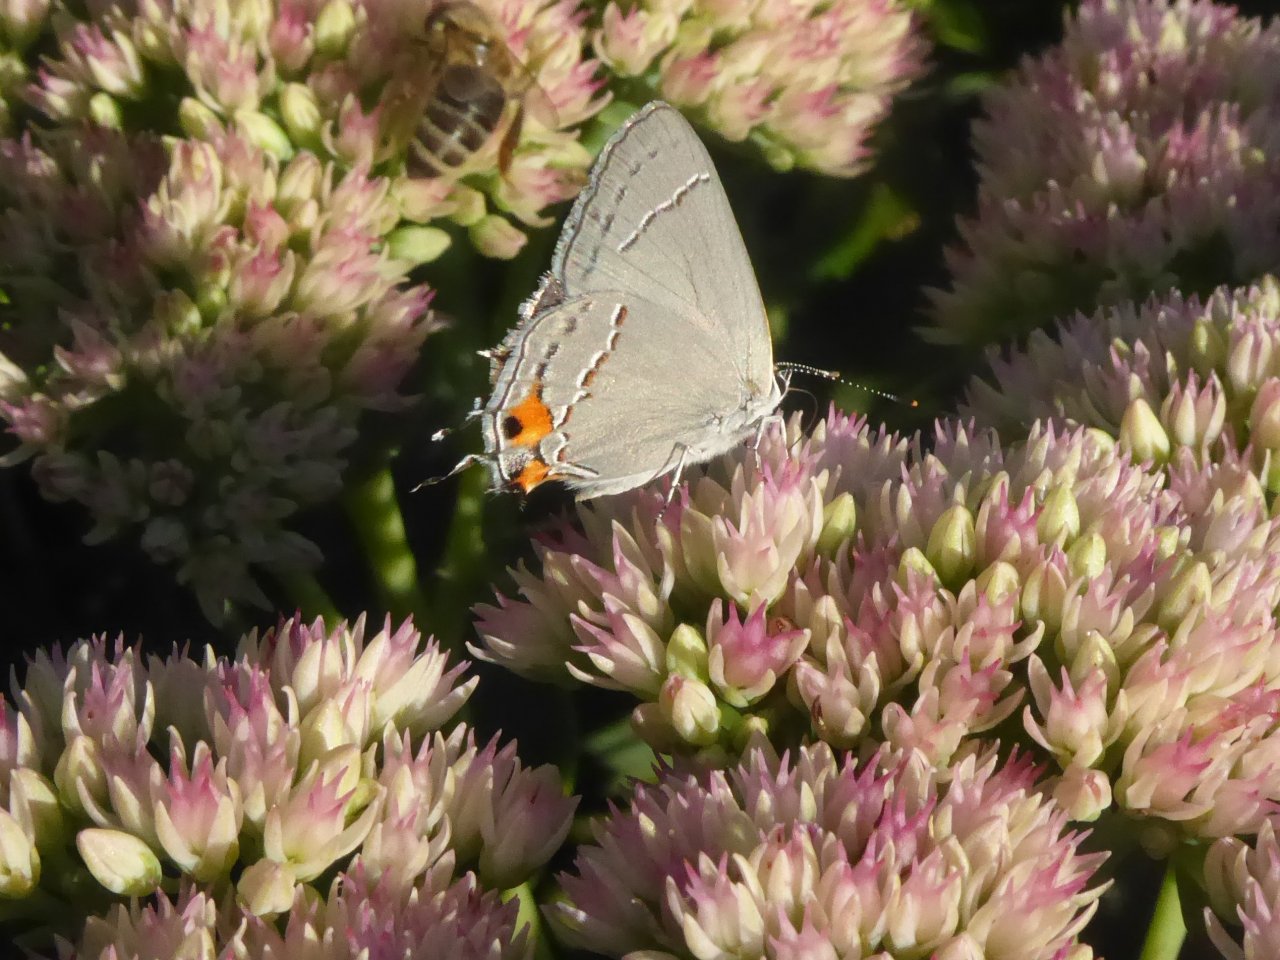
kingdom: Animalia
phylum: Arthropoda
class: Insecta
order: Lepidoptera
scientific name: Lepidoptera
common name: Butterflies
